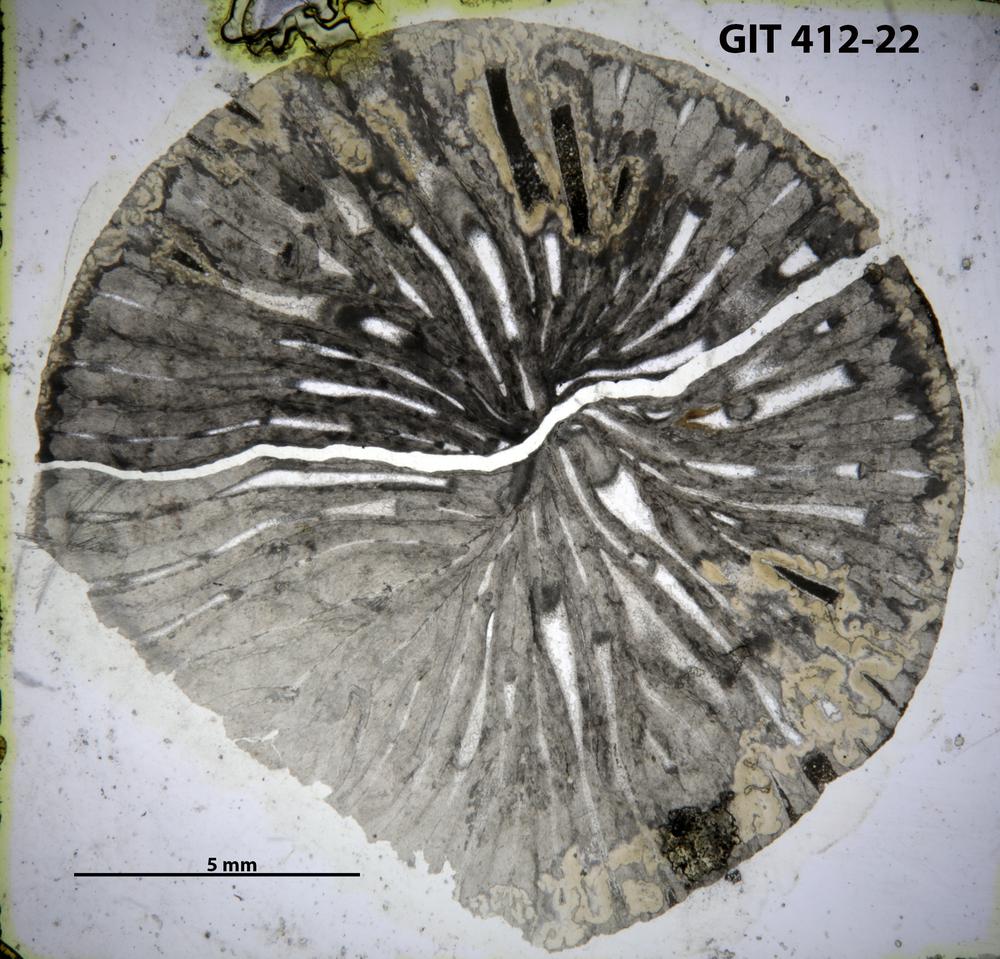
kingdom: Animalia
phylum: Cnidaria
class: Anthozoa
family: Streptelasmatidae
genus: Crassilasma
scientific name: Crassilasma
